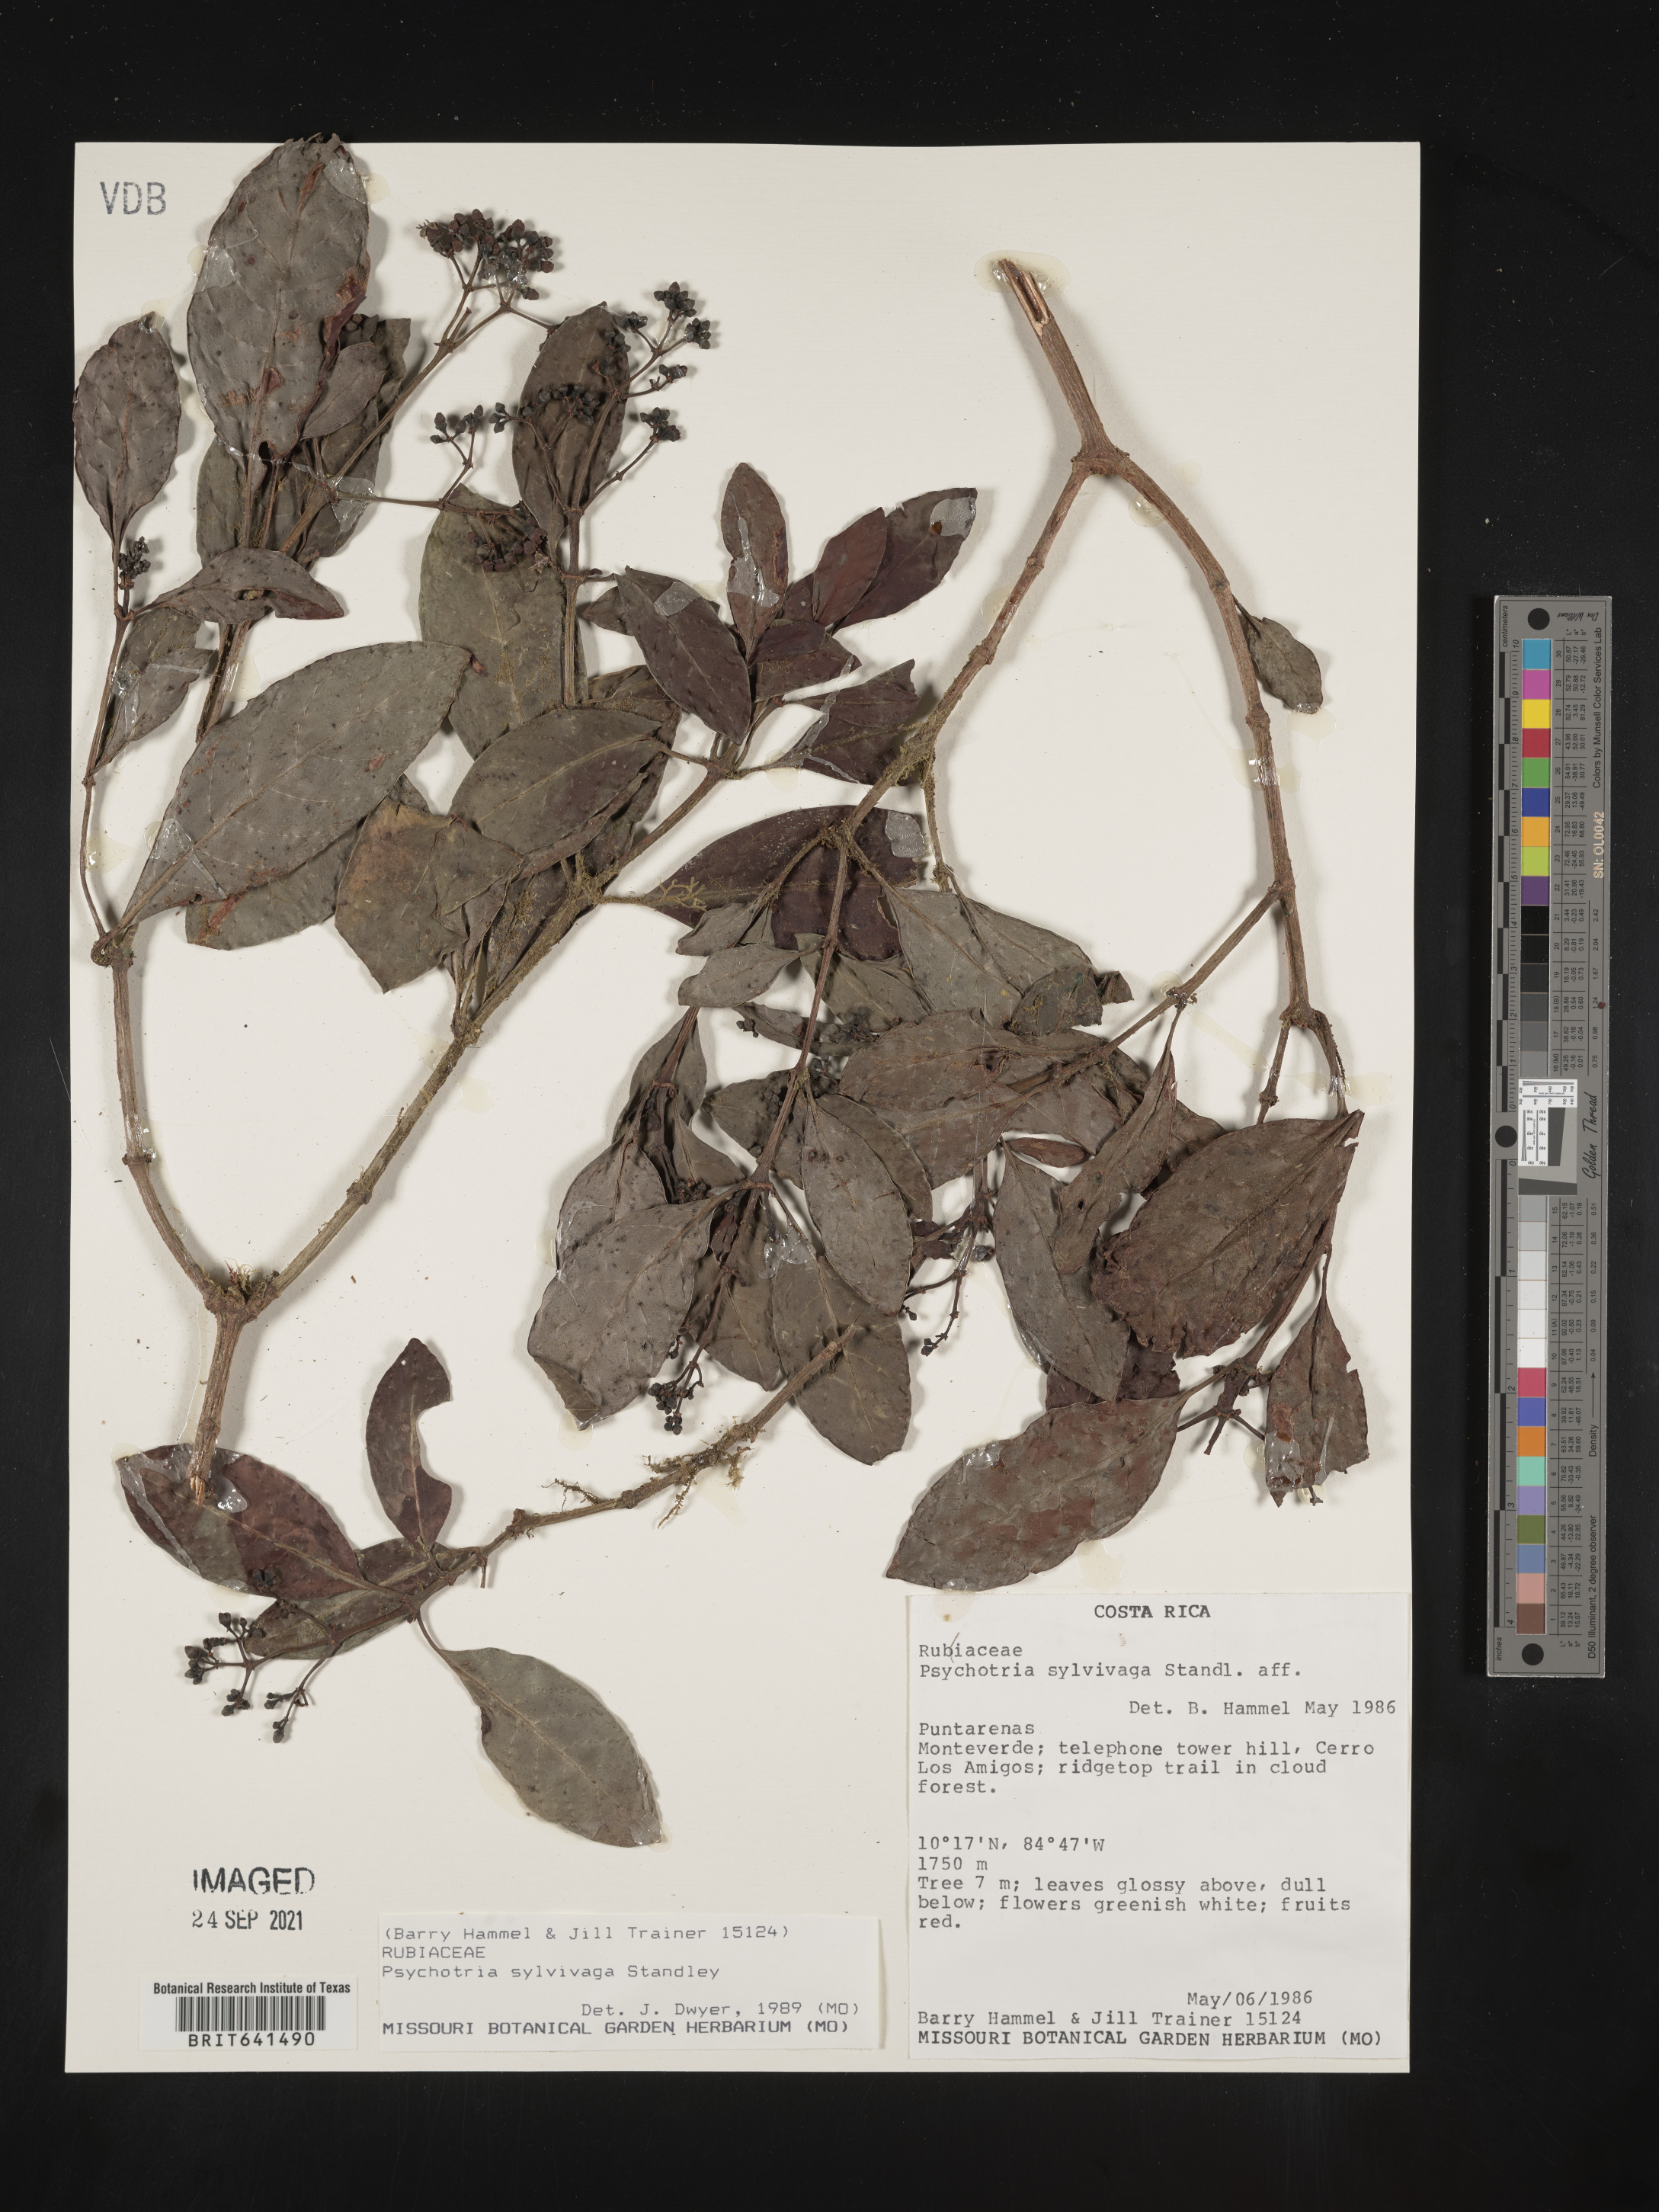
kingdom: Plantae
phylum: Tracheophyta
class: Magnoliopsida
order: Gentianales
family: Rubiaceae
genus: Psychotria
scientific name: Psychotria
